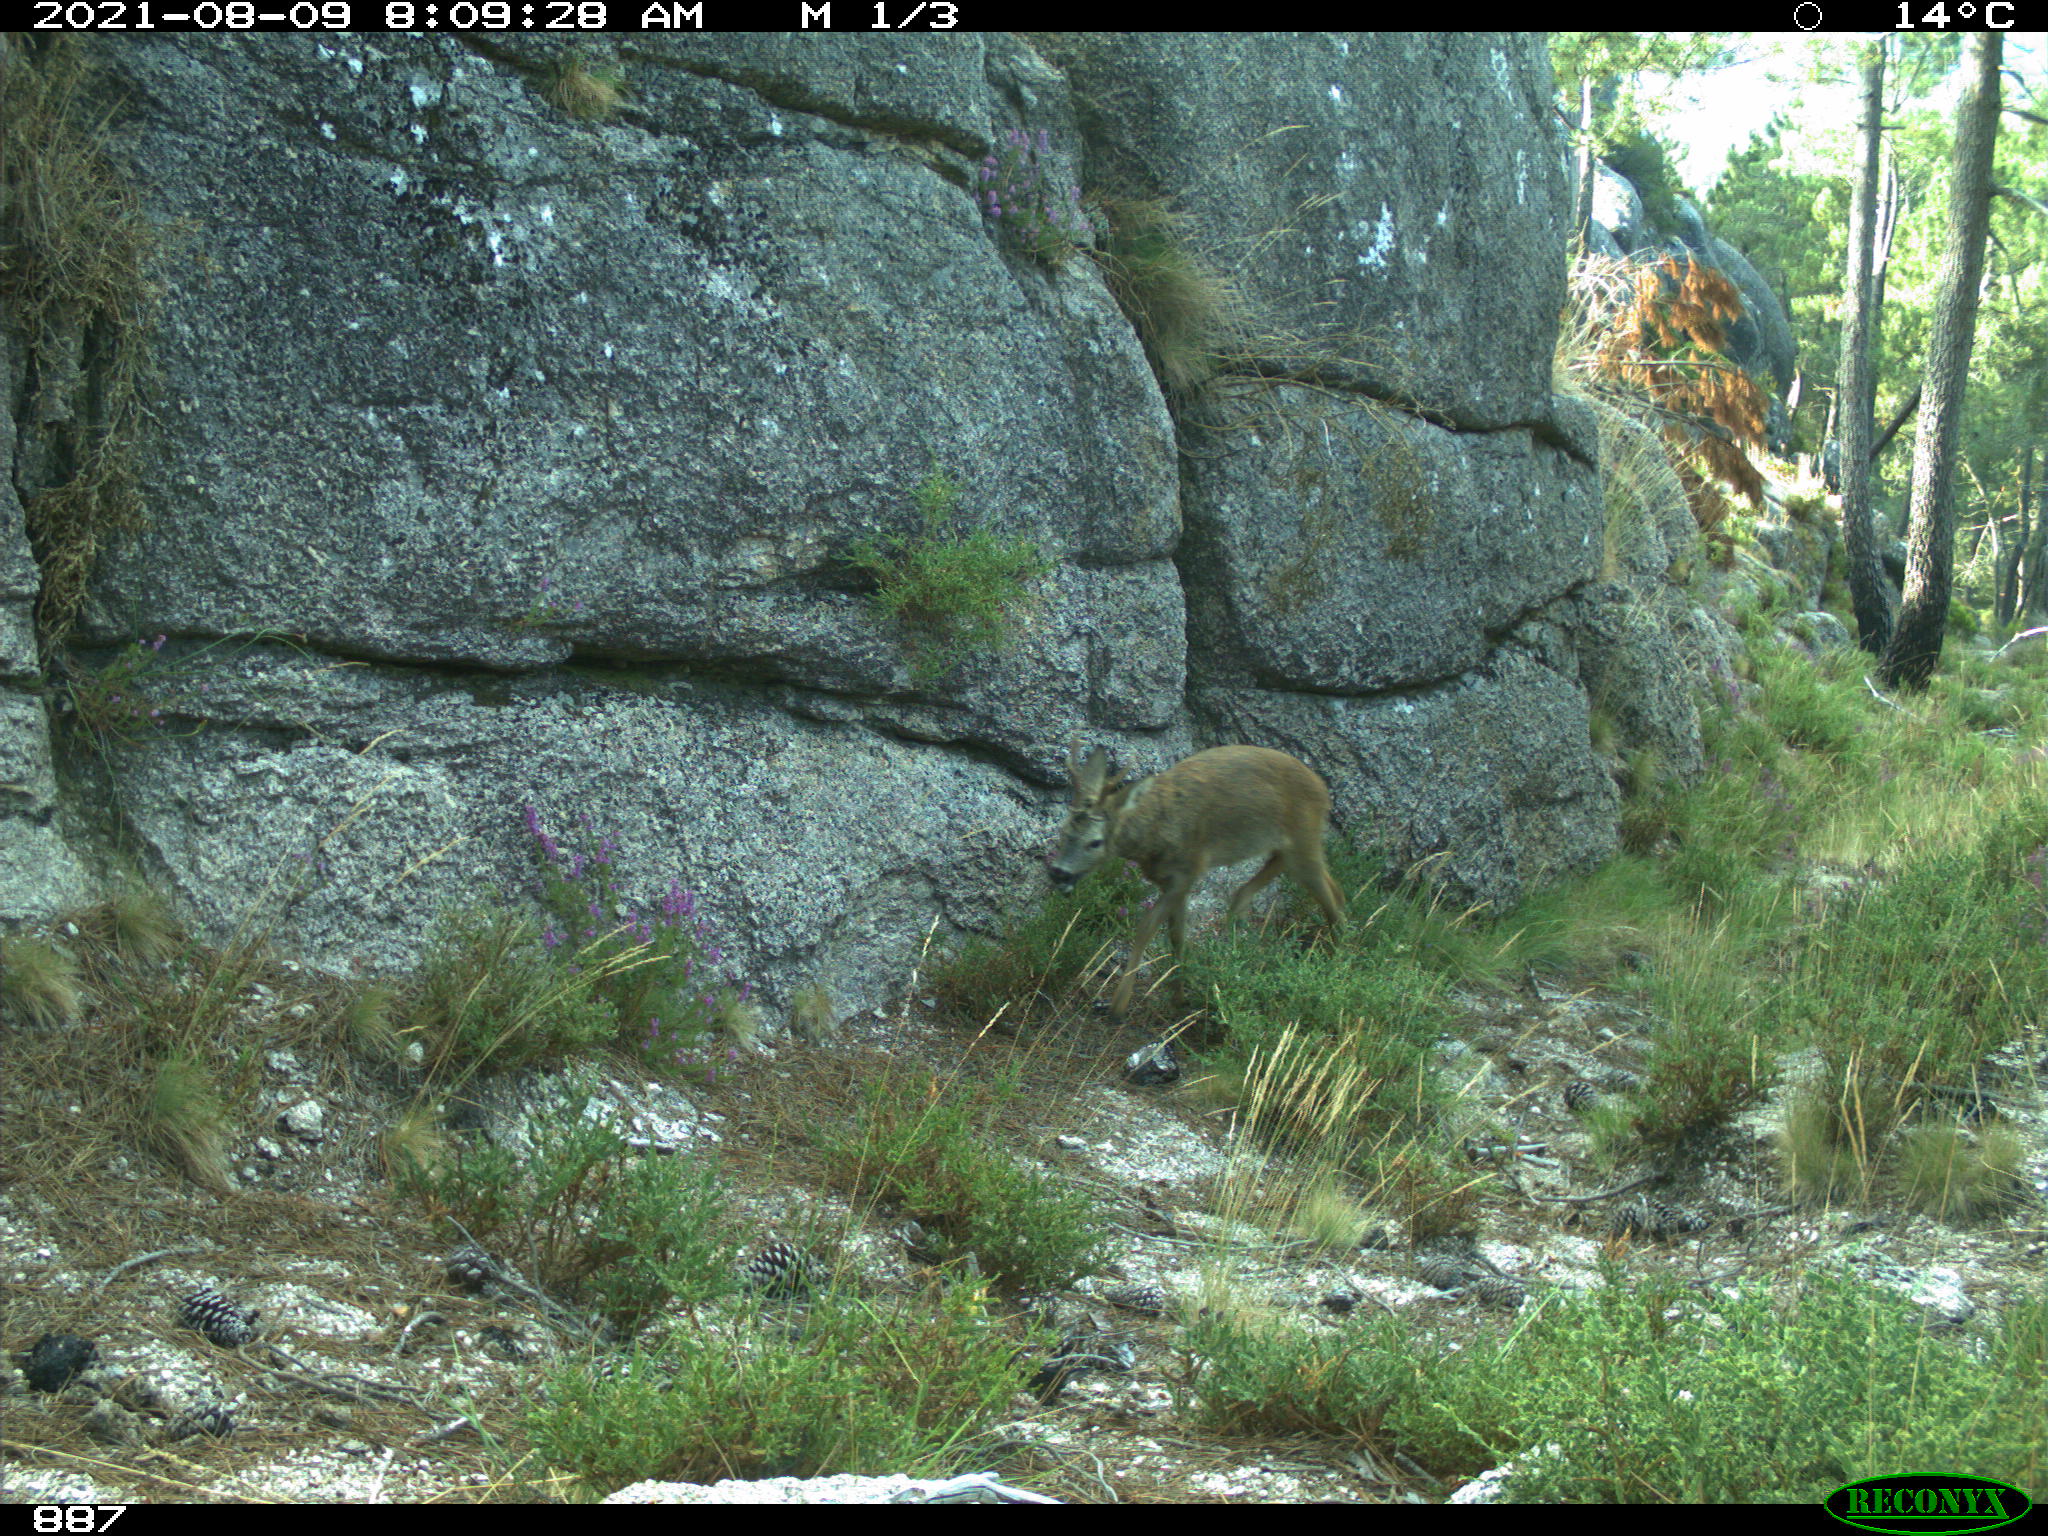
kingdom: Animalia
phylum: Chordata
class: Mammalia
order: Artiodactyla
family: Cervidae
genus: Capreolus
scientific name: Capreolus capreolus
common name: Western roe deer
